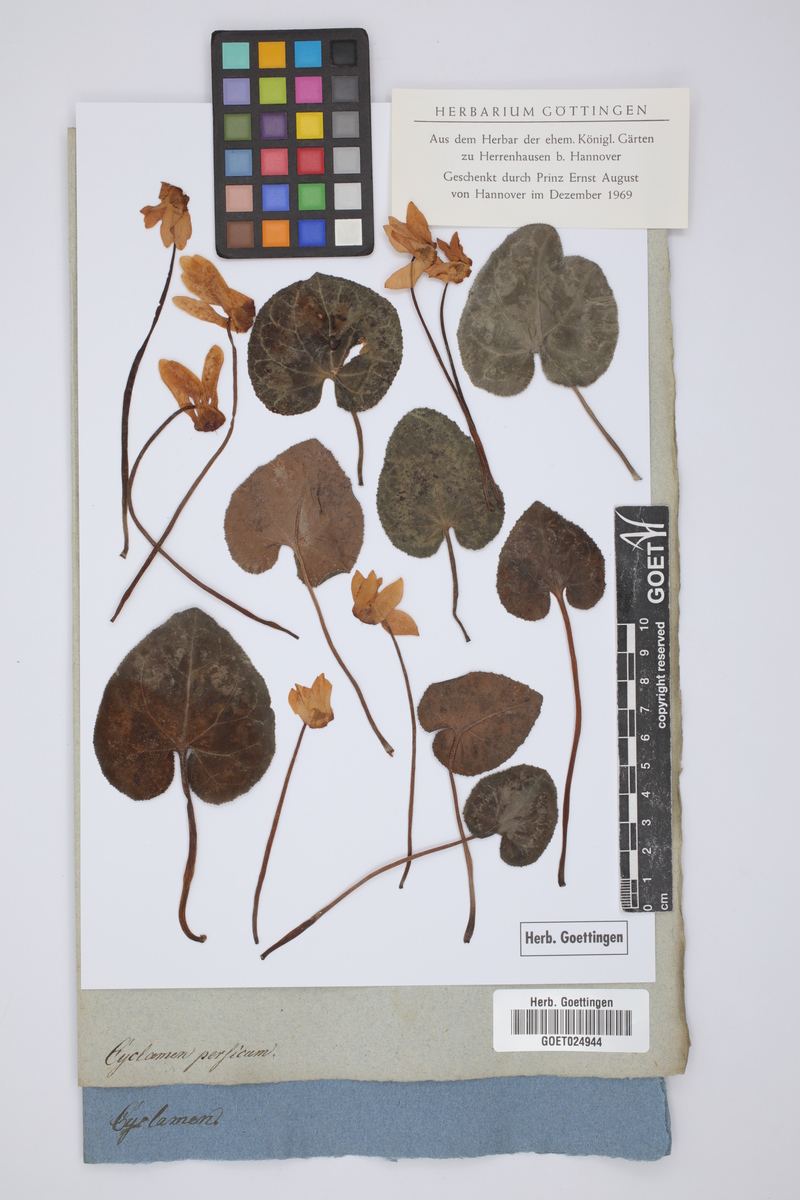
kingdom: Plantae
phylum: Tracheophyta
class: Magnoliopsida
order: Ericales
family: Primulaceae
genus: Cyclamen
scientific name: Cyclamen persicum
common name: Florist's cyclamen
